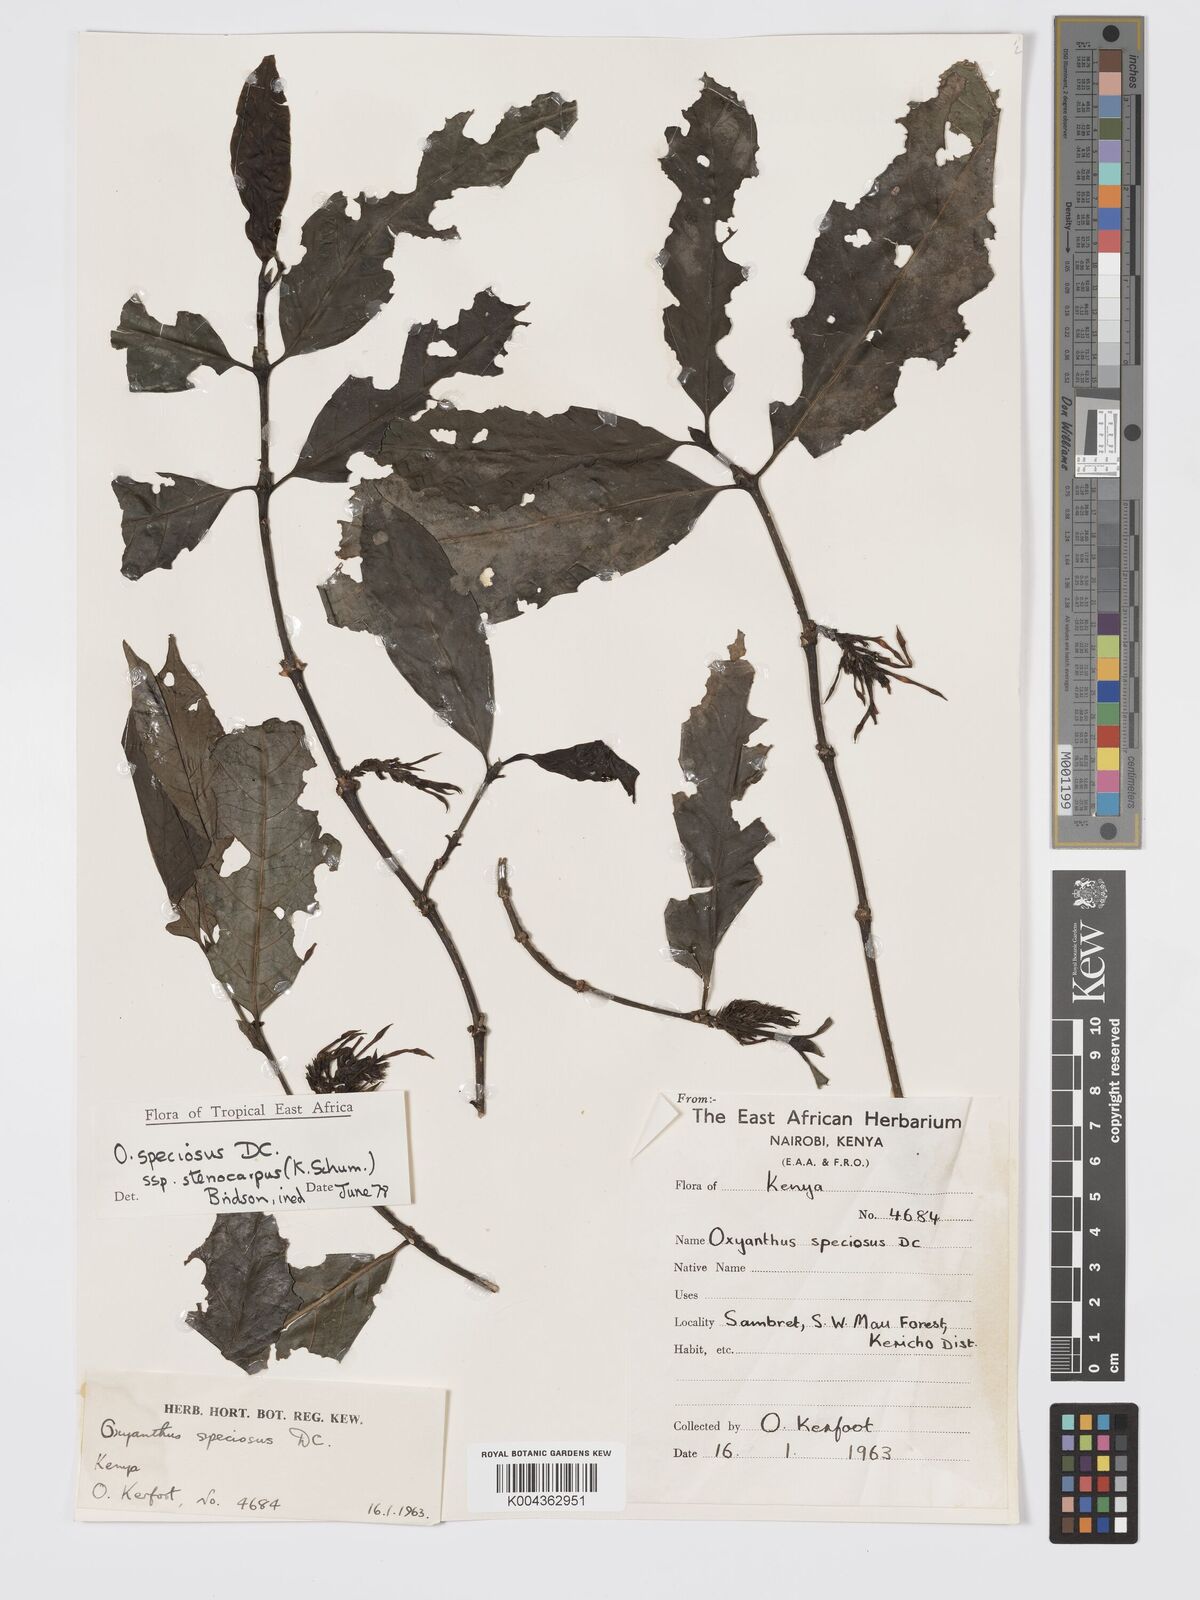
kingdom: Plantae
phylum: Tracheophyta
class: Magnoliopsida
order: Gentianales
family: Rubiaceae
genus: Oxyanthus
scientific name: Oxyanthus speciosus
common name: Whipstick loquat
